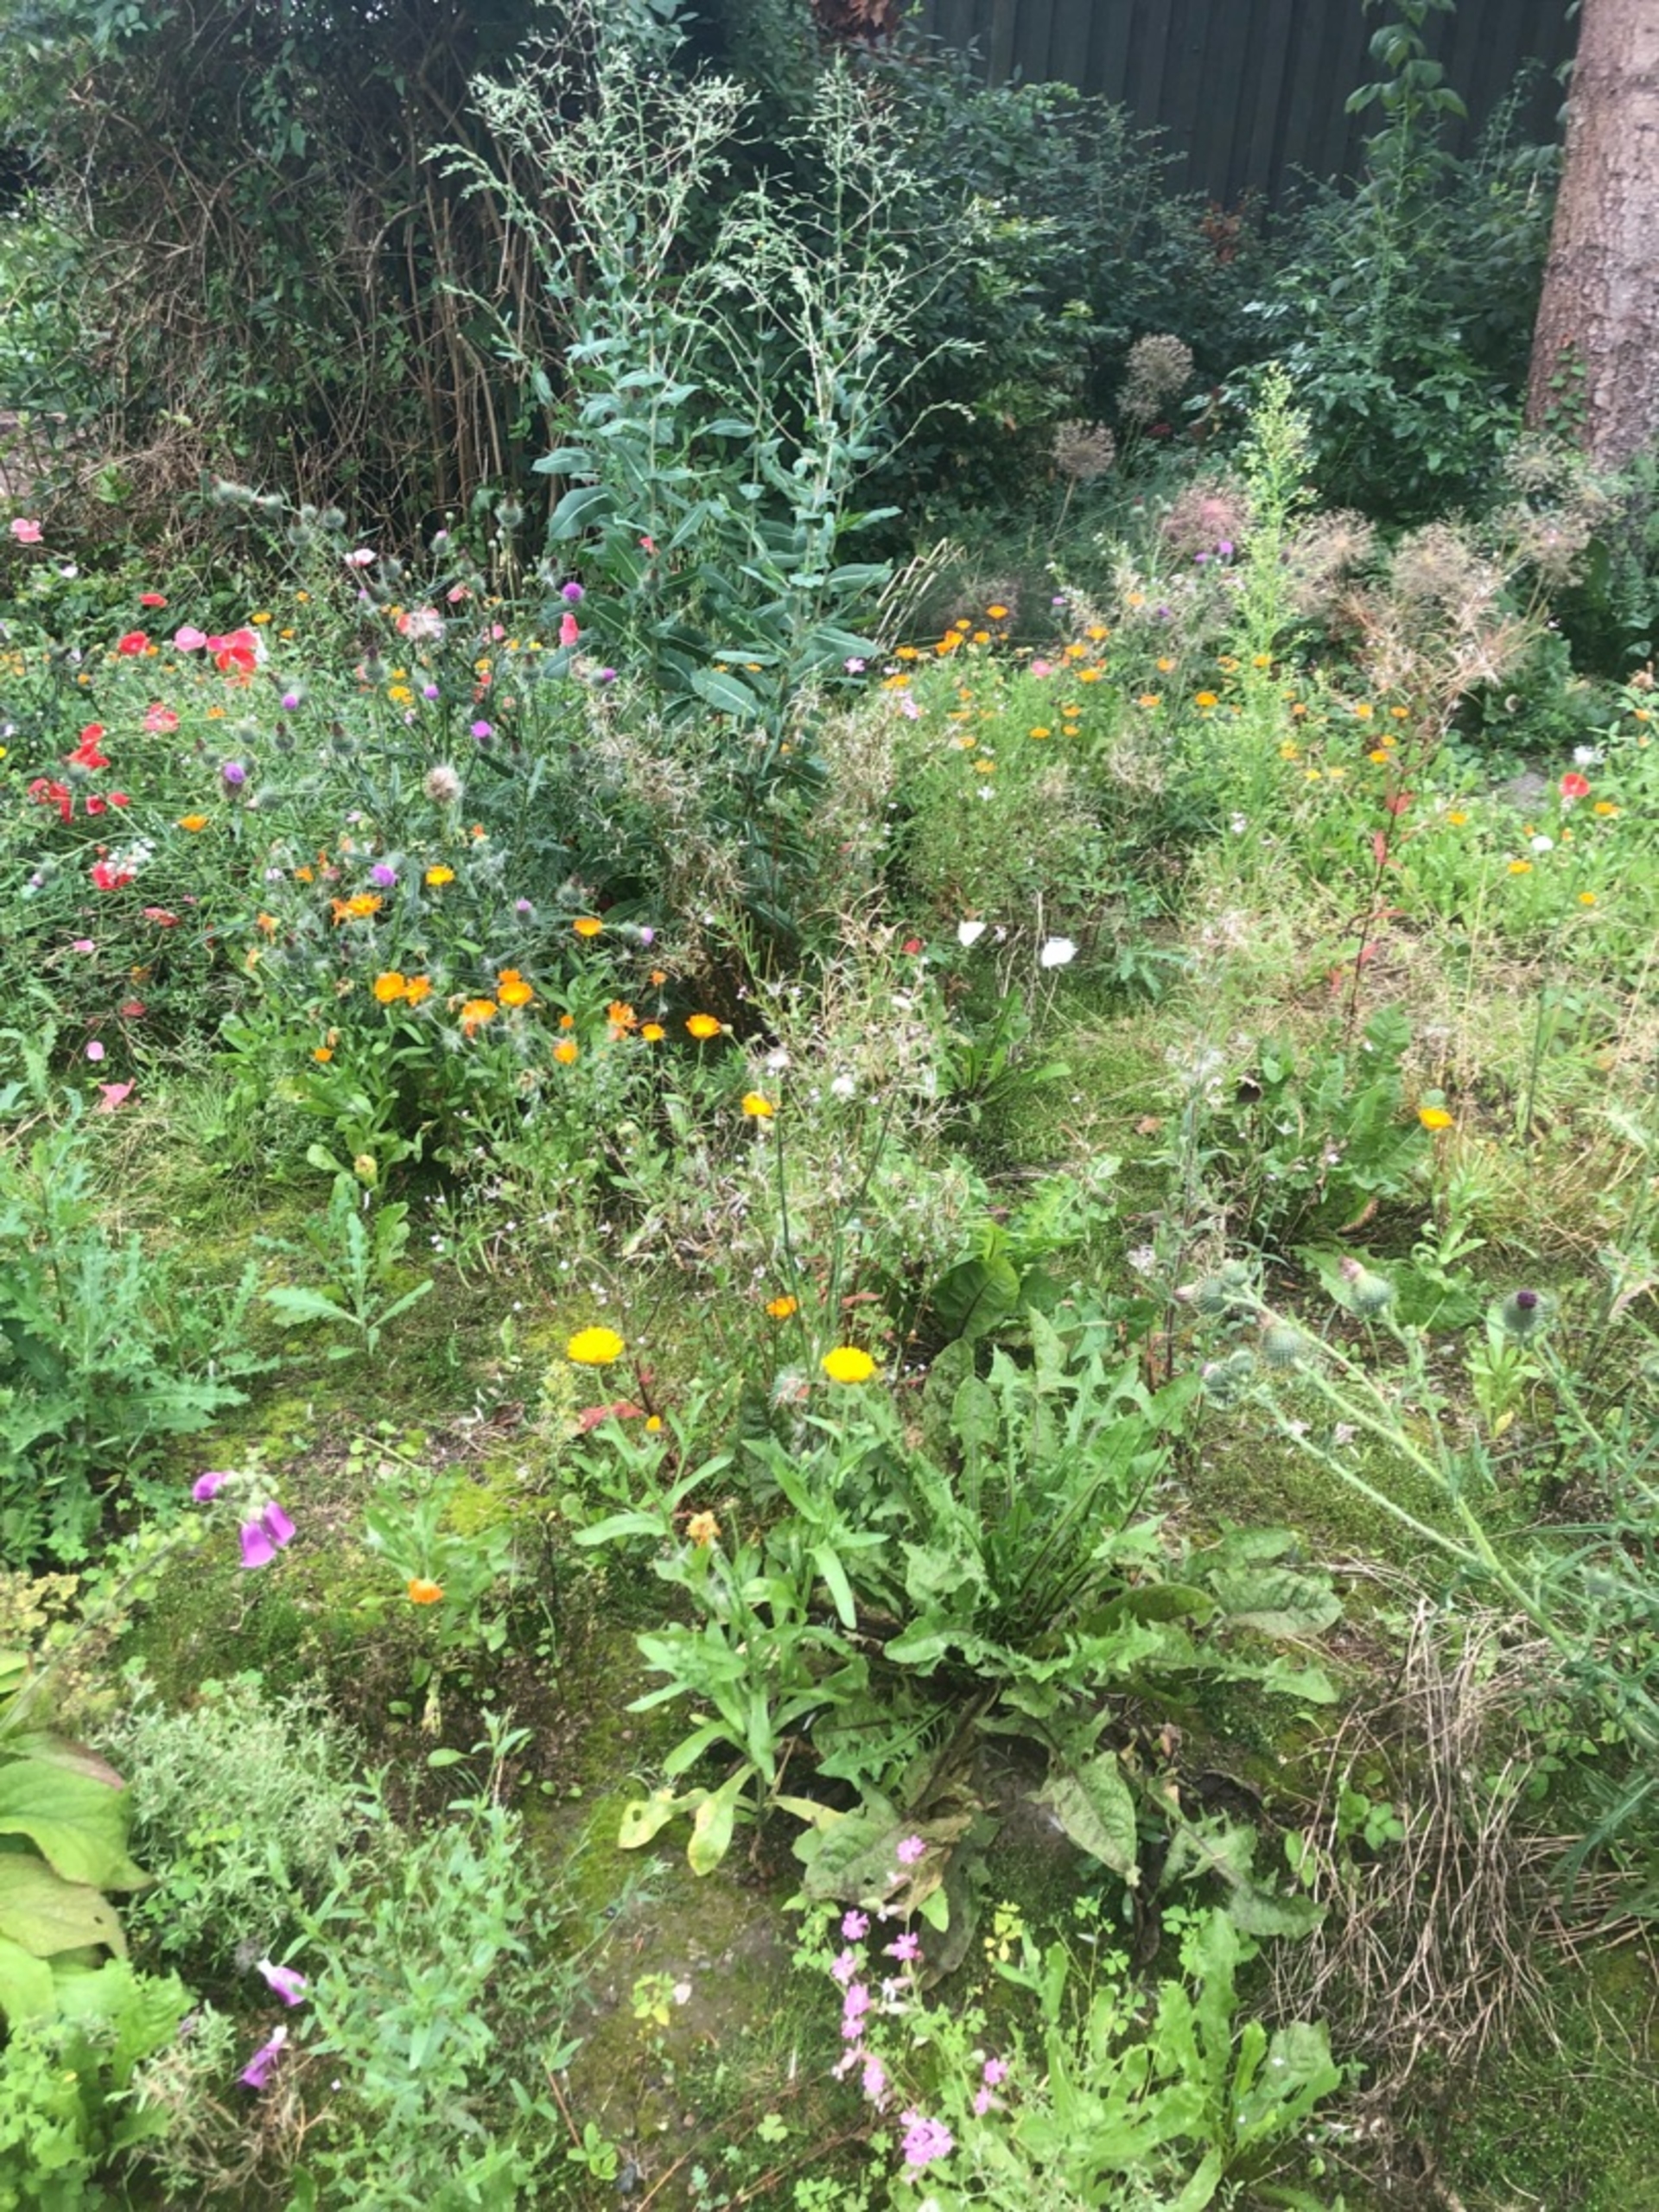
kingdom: Animalia
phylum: Arthropoda
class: Insecta
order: Lepidoptera
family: Pieridae
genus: Pieris
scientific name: Pieris brassicae
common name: Stor kålsommerfugl
